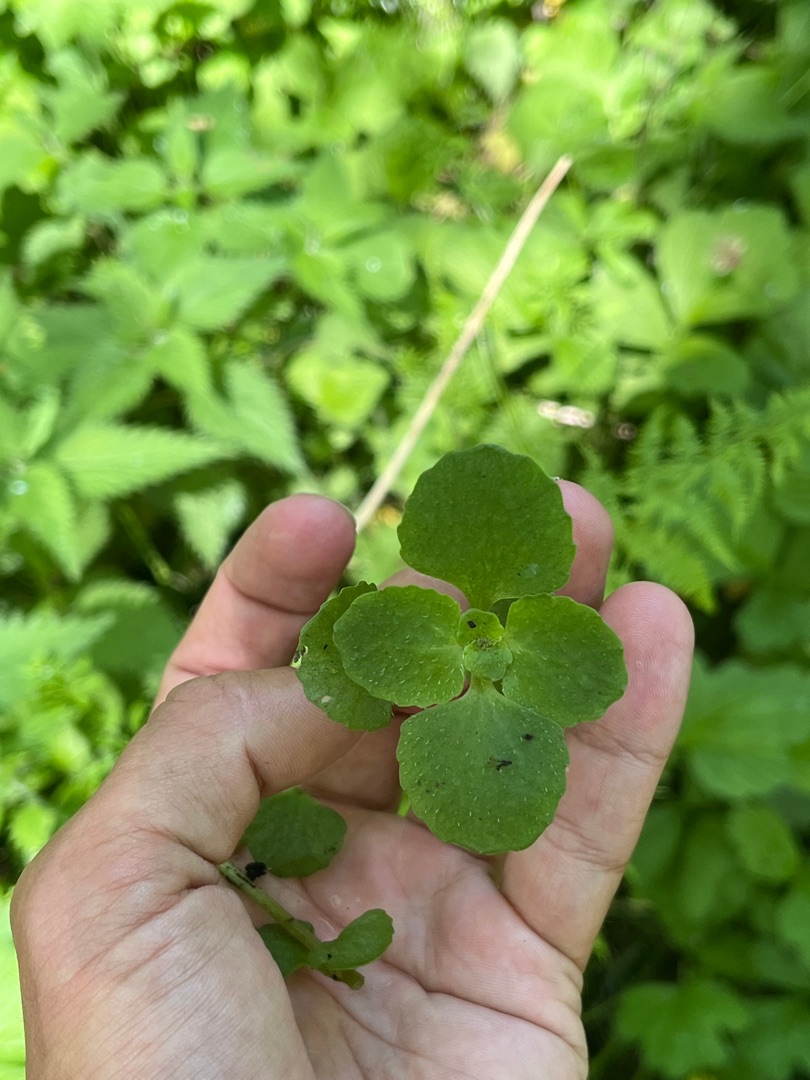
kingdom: Plantae
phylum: Tracheophyta
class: Magnoliopsida
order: Saxifragales
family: Saxifragaceae
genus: Chrysosplenium
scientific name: Chrysosplenium alternifolium
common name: Almindelig milturt
